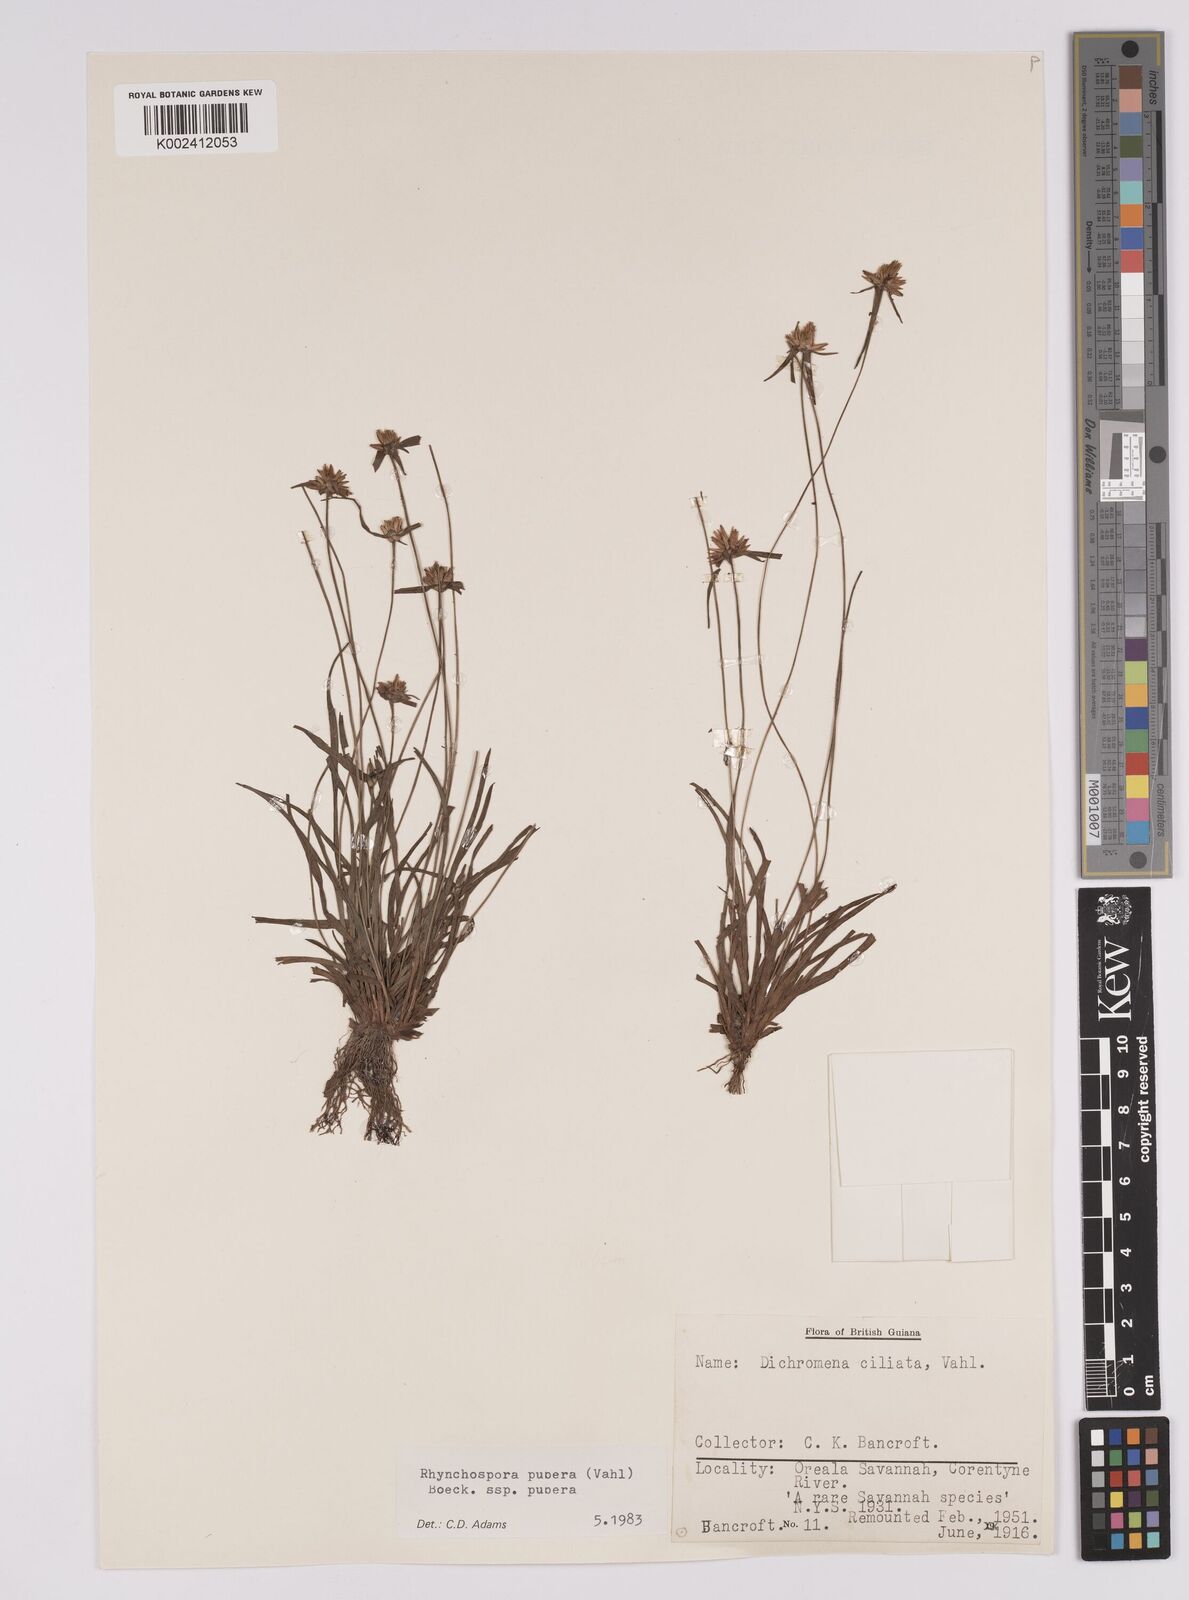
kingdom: Plantae
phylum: Tracheophyta
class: Liliopsida
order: Poales
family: Cyperaceae
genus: Rhynchospora
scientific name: Rhynchospora pubera
